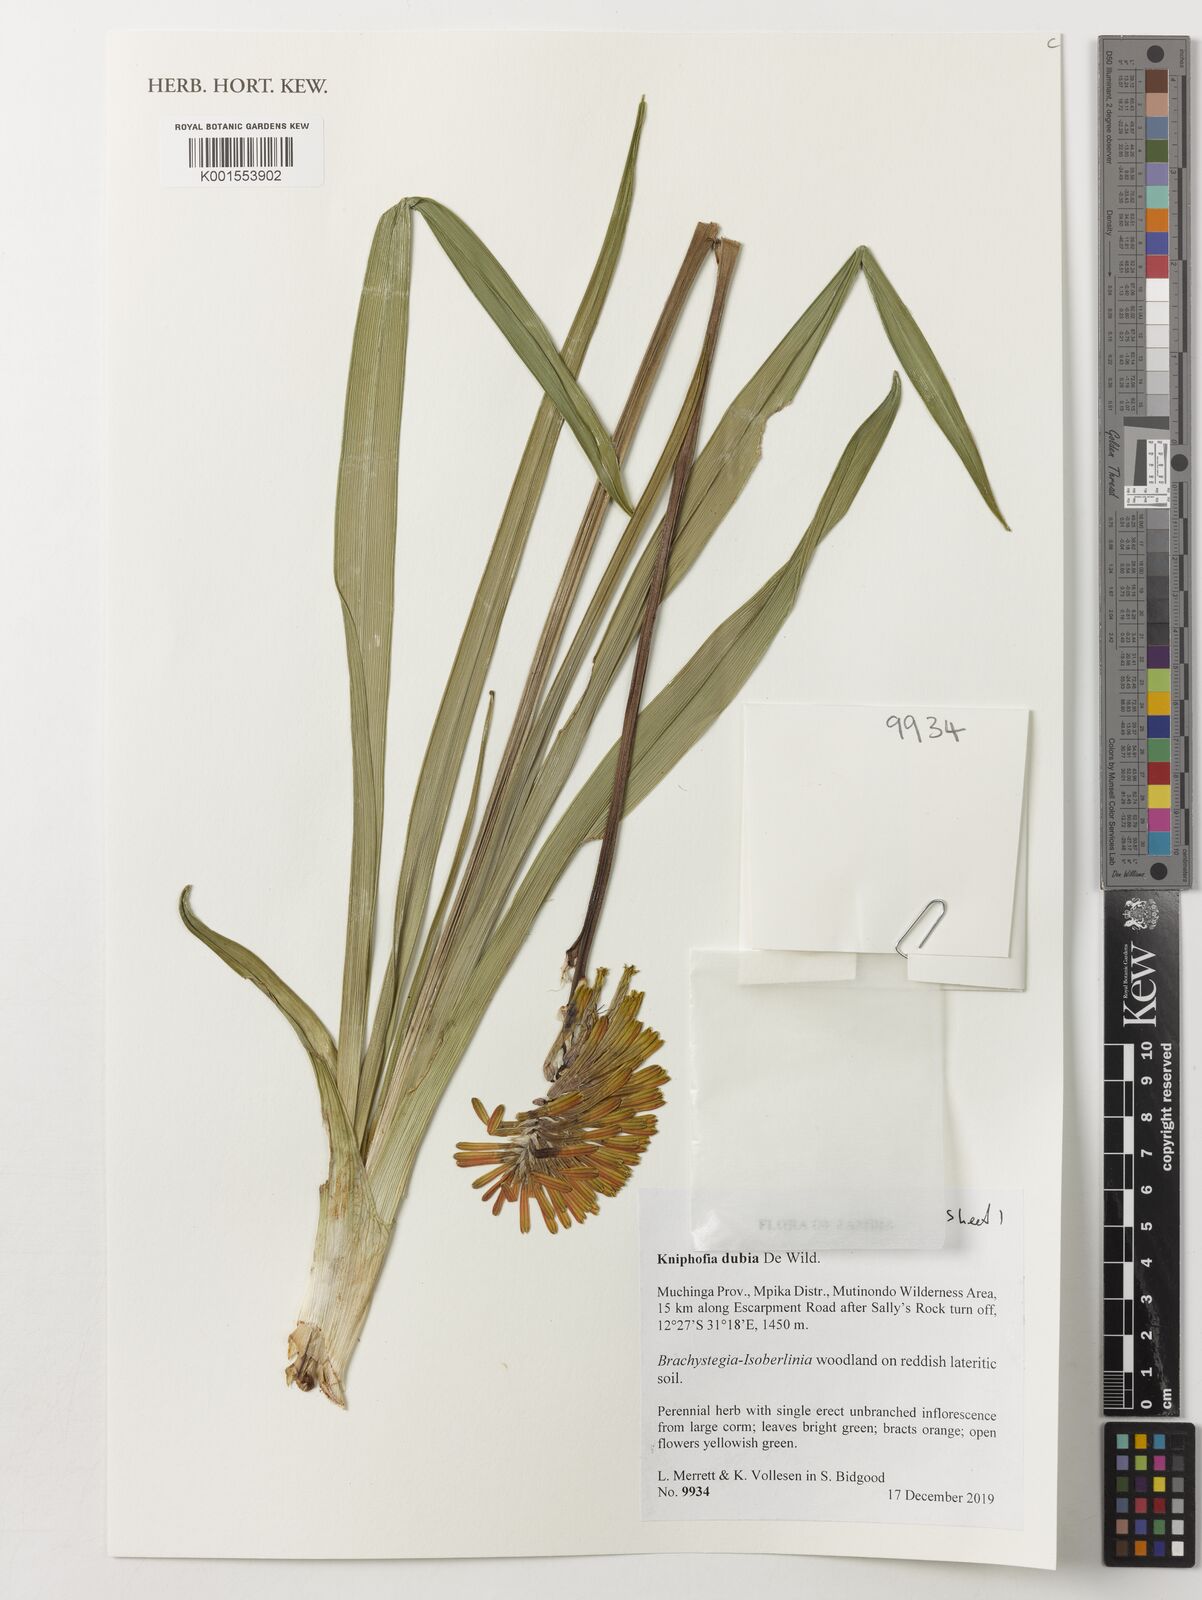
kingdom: Plantae
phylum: Tracheophyta
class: Liliopsida
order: Asparagales
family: Asphodelaceae
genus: Kniphofia
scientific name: Kniphofia dubia
